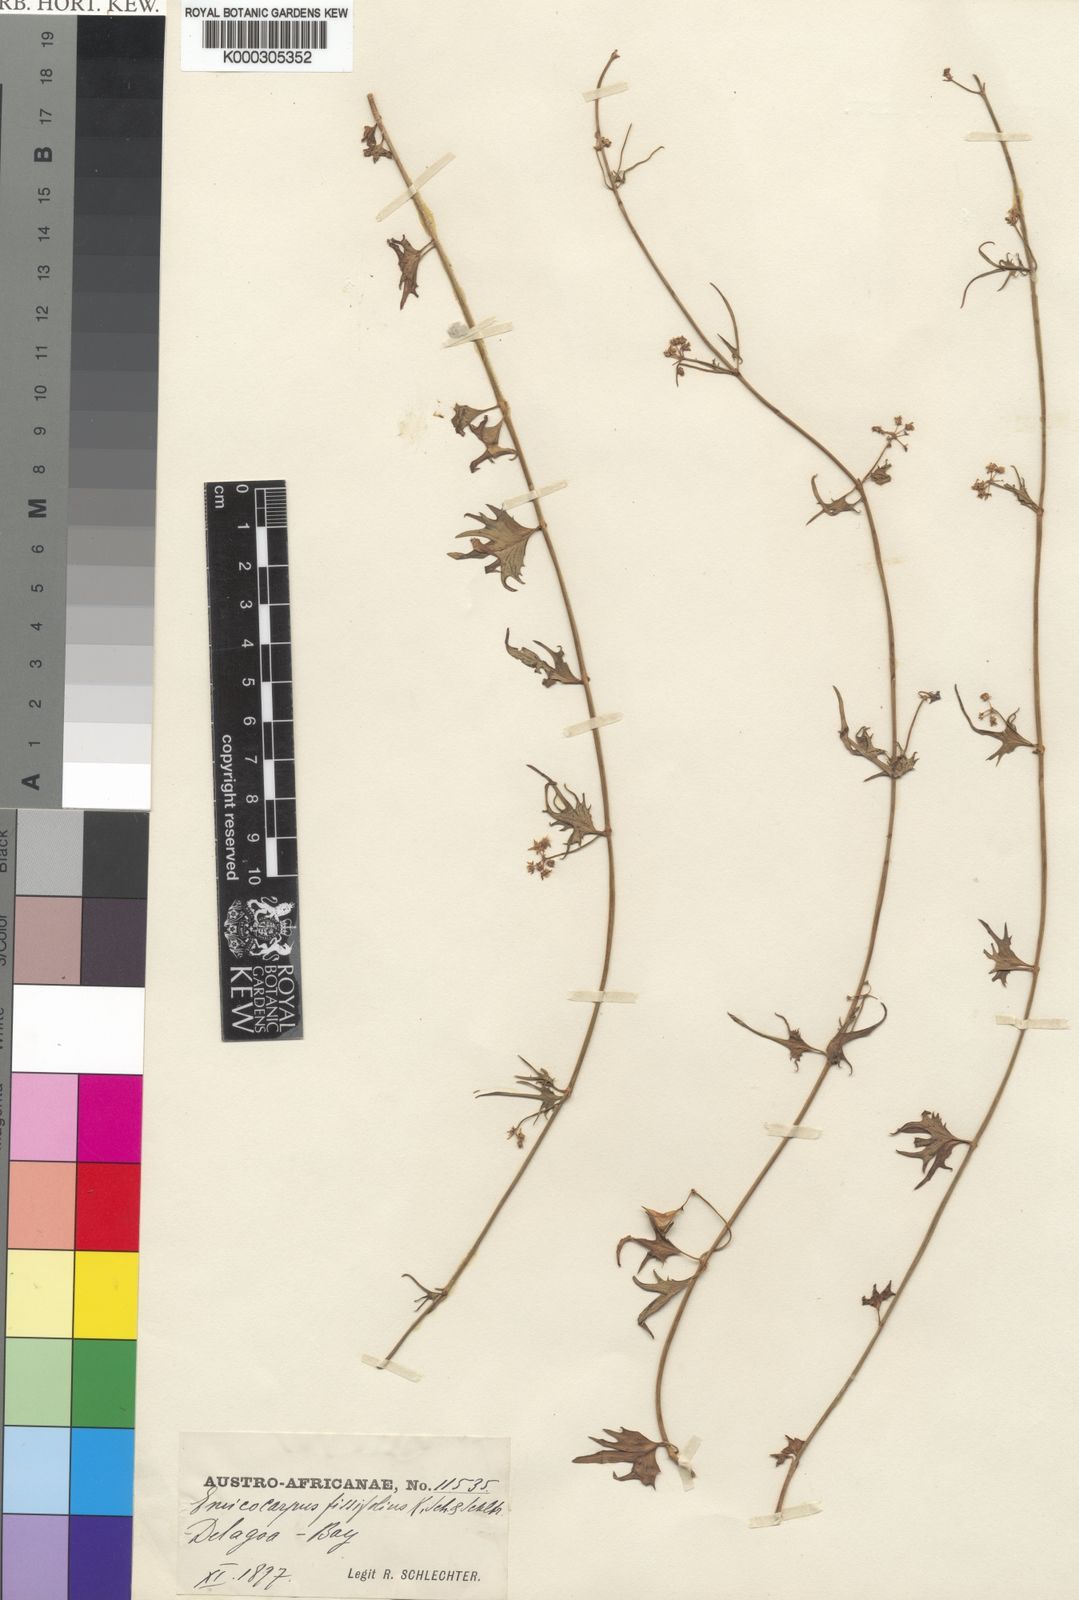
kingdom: Plantae
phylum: Tracheophyta
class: Magnoliopsida
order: Gentianales
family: Apocynaceae
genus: Emicocarpus
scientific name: Emicocarpus fissifolius
